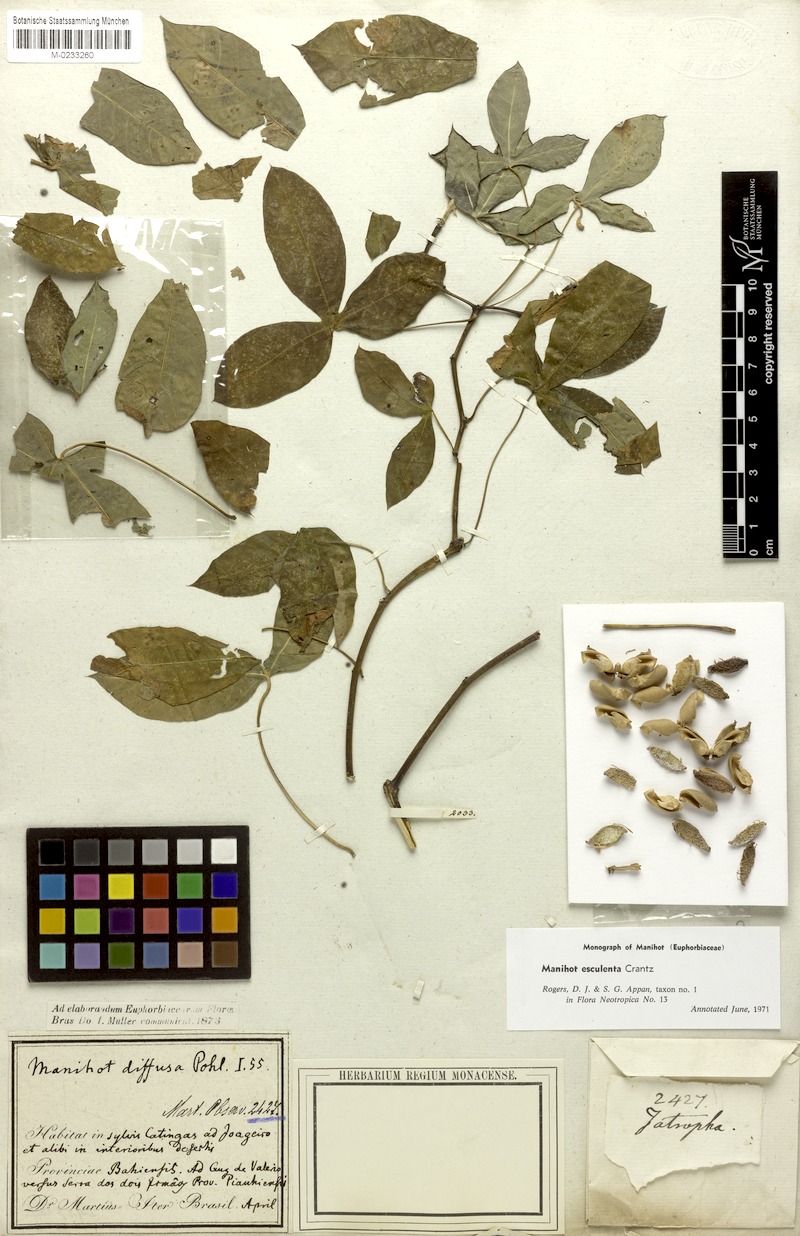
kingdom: Plantae
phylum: Tracheophyta
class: Magnoliopsida
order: Malpighiales
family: Euphorbiaceae
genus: Manihot
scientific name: Manihot esculenta
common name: Cassava
